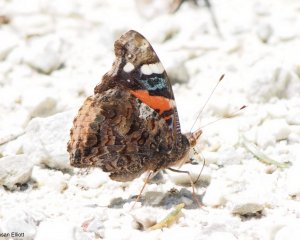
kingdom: Animalia
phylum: Arthropoda
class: Insecta
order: Lepidoptera
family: Nymphalidae
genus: Vanessa
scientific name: Vanessa atalanta
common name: Red Admiral
